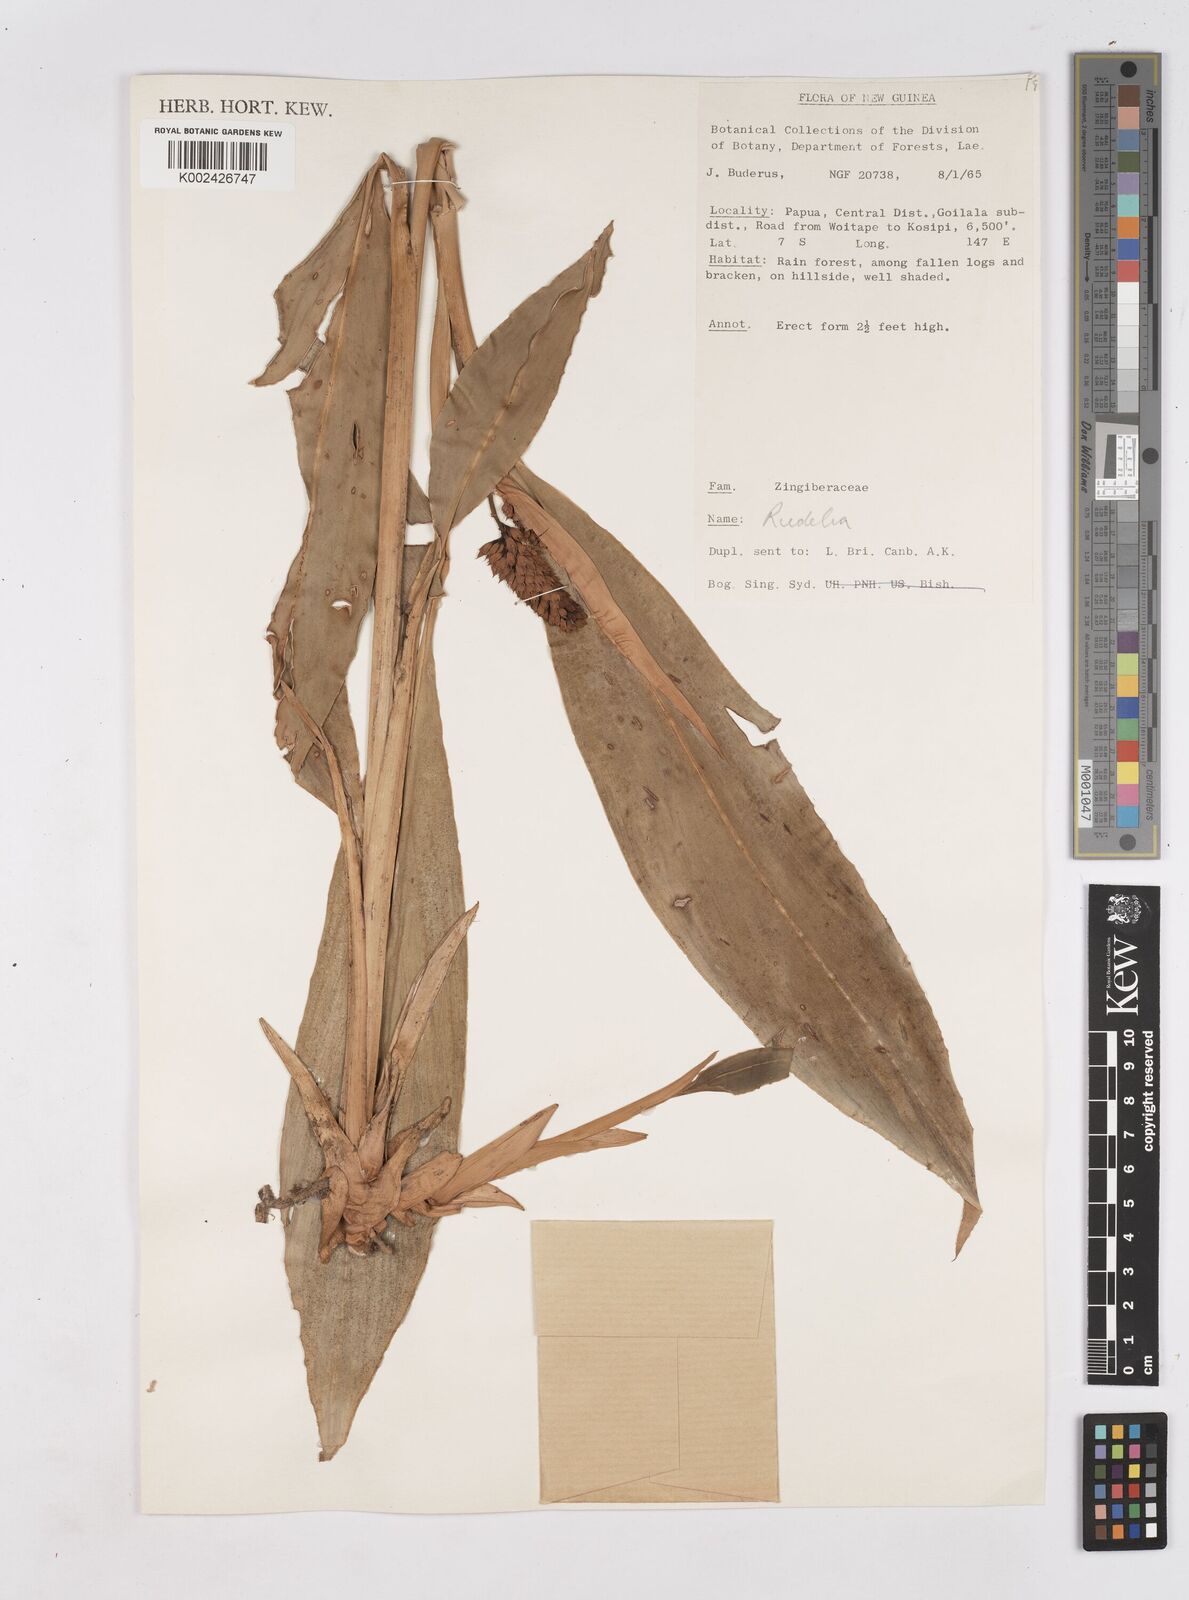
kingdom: Plantae
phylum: Tracheophyta
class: Liliopsida
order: Zingiberales
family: Zingiberaceae
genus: Riedelia
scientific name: Riedelia
